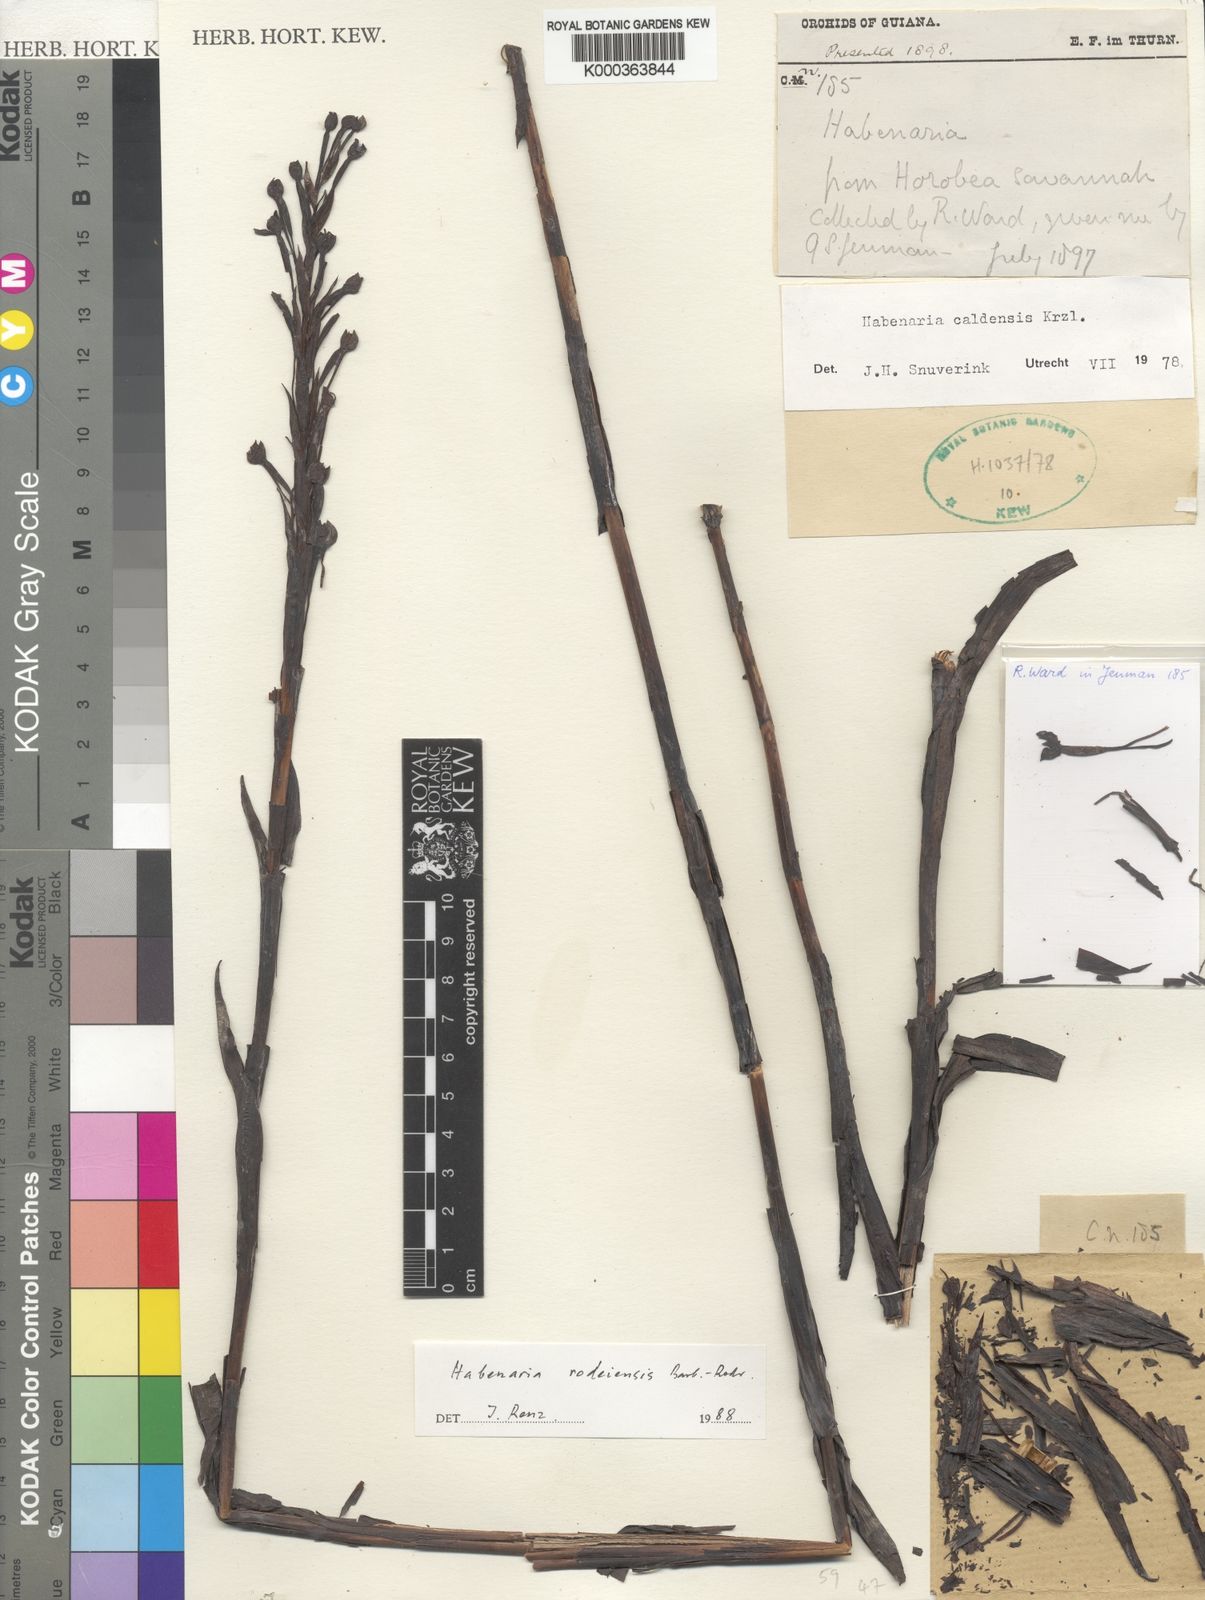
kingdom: Plantae
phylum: Tracheophyta
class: Liliopsida
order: Asparagales
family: Orchidaceae
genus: Habenaria
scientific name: Habenaria rodeiensis
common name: Bog orchid
